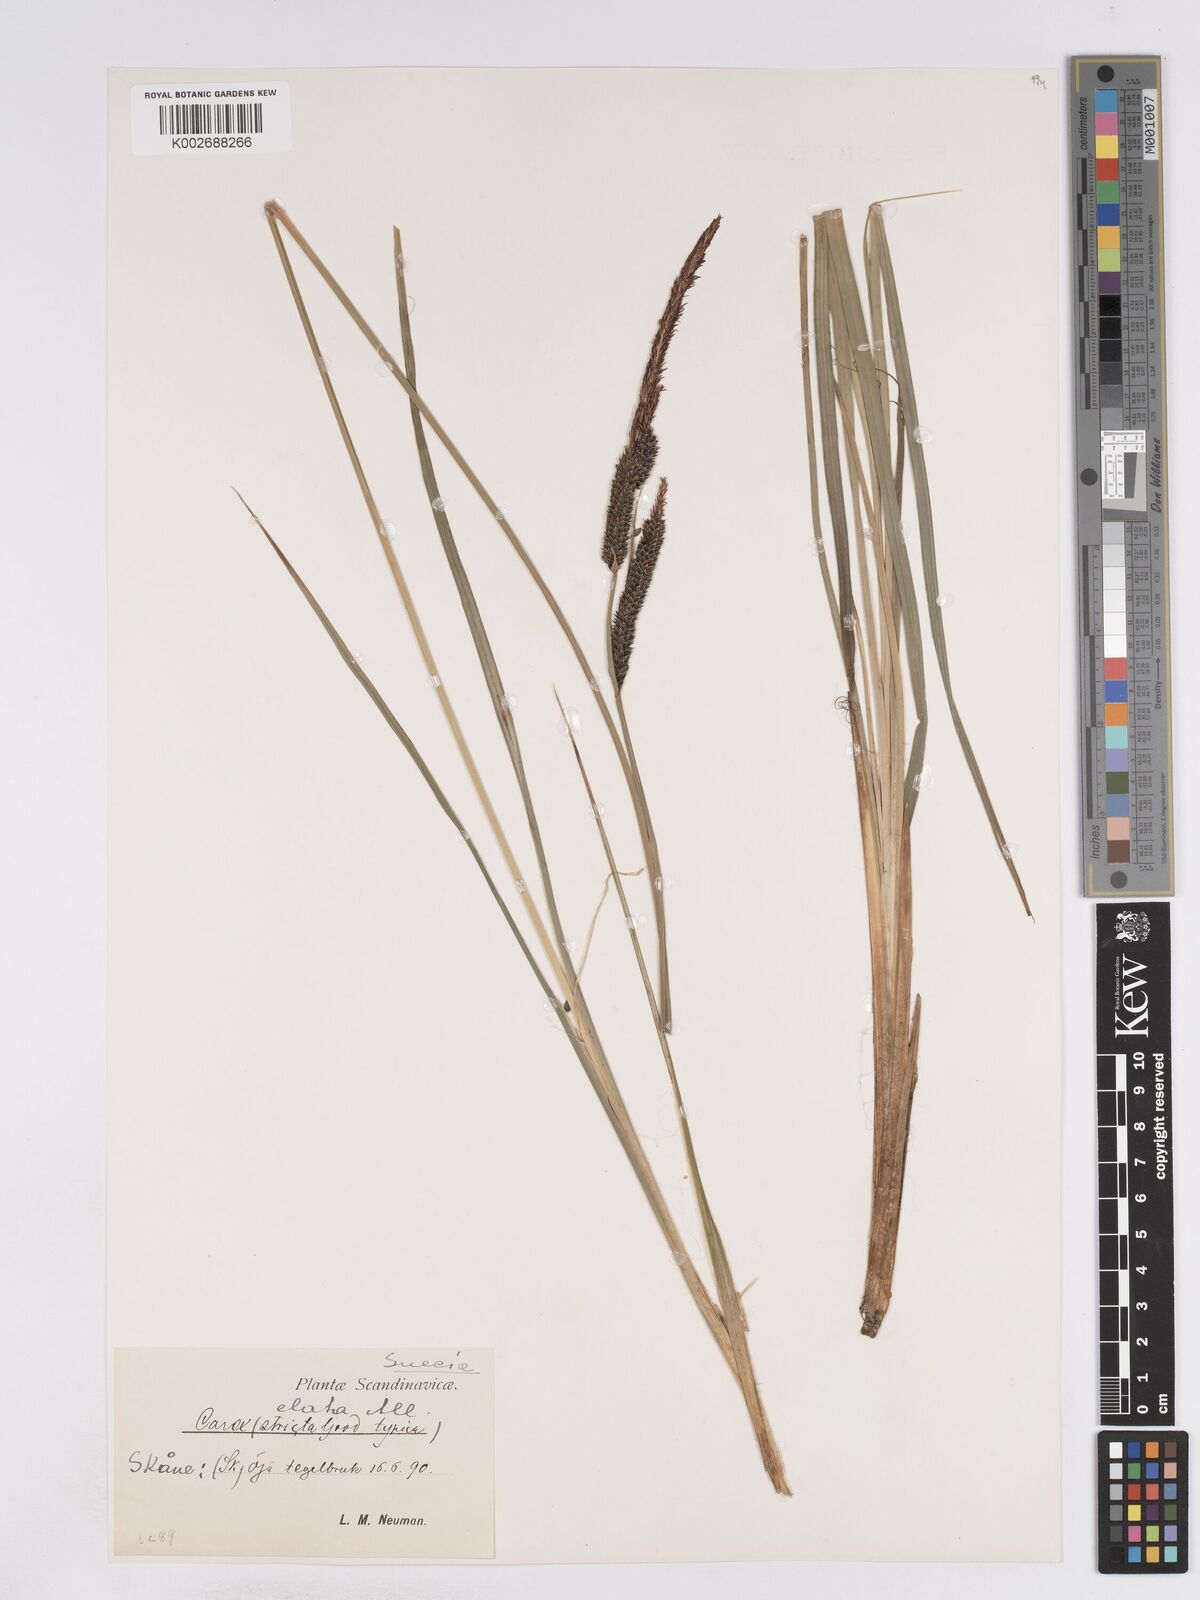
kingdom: Plantae
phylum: Tracheophyta
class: Liliopsida
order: Poales
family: Cyperaceae
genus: Carex
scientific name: Carex elata
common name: Tufted sedge
